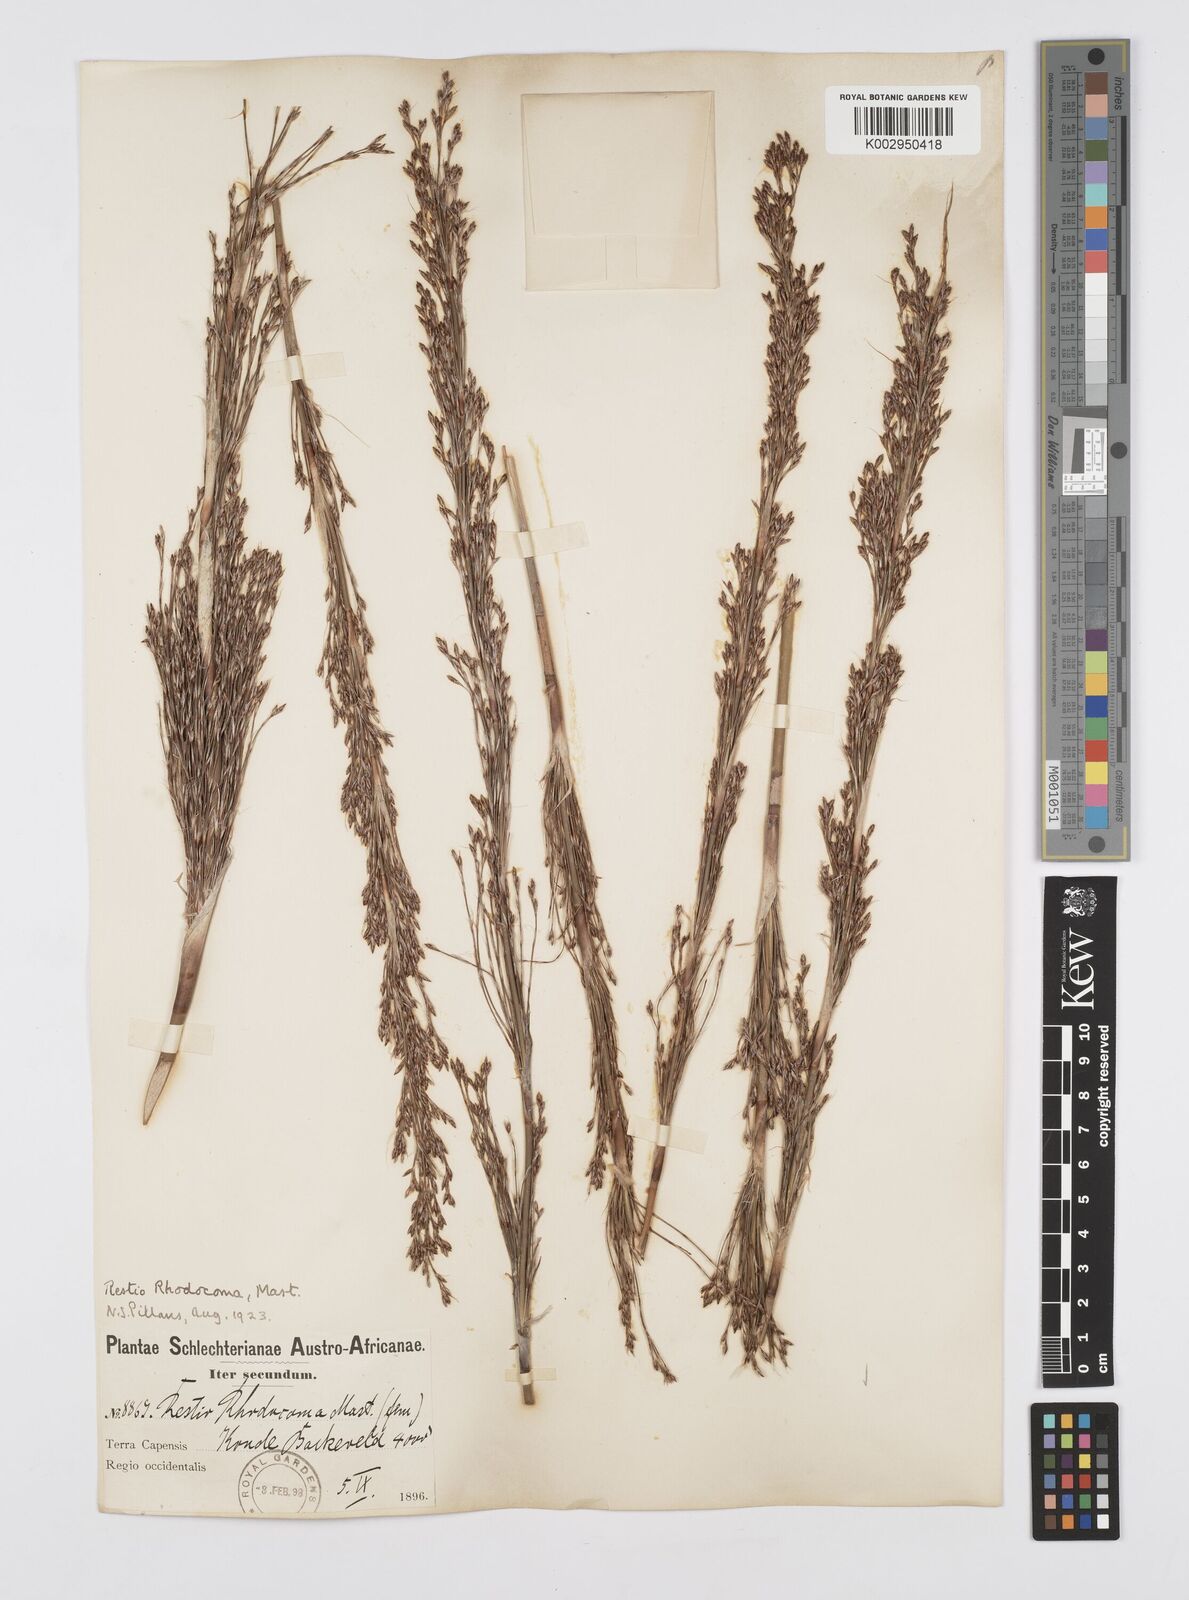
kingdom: Plantae
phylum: Tracheophyta
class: Liliopsida
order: Poales
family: Restionaceae
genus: Rhodocoma
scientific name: Rhodocoma capensis
